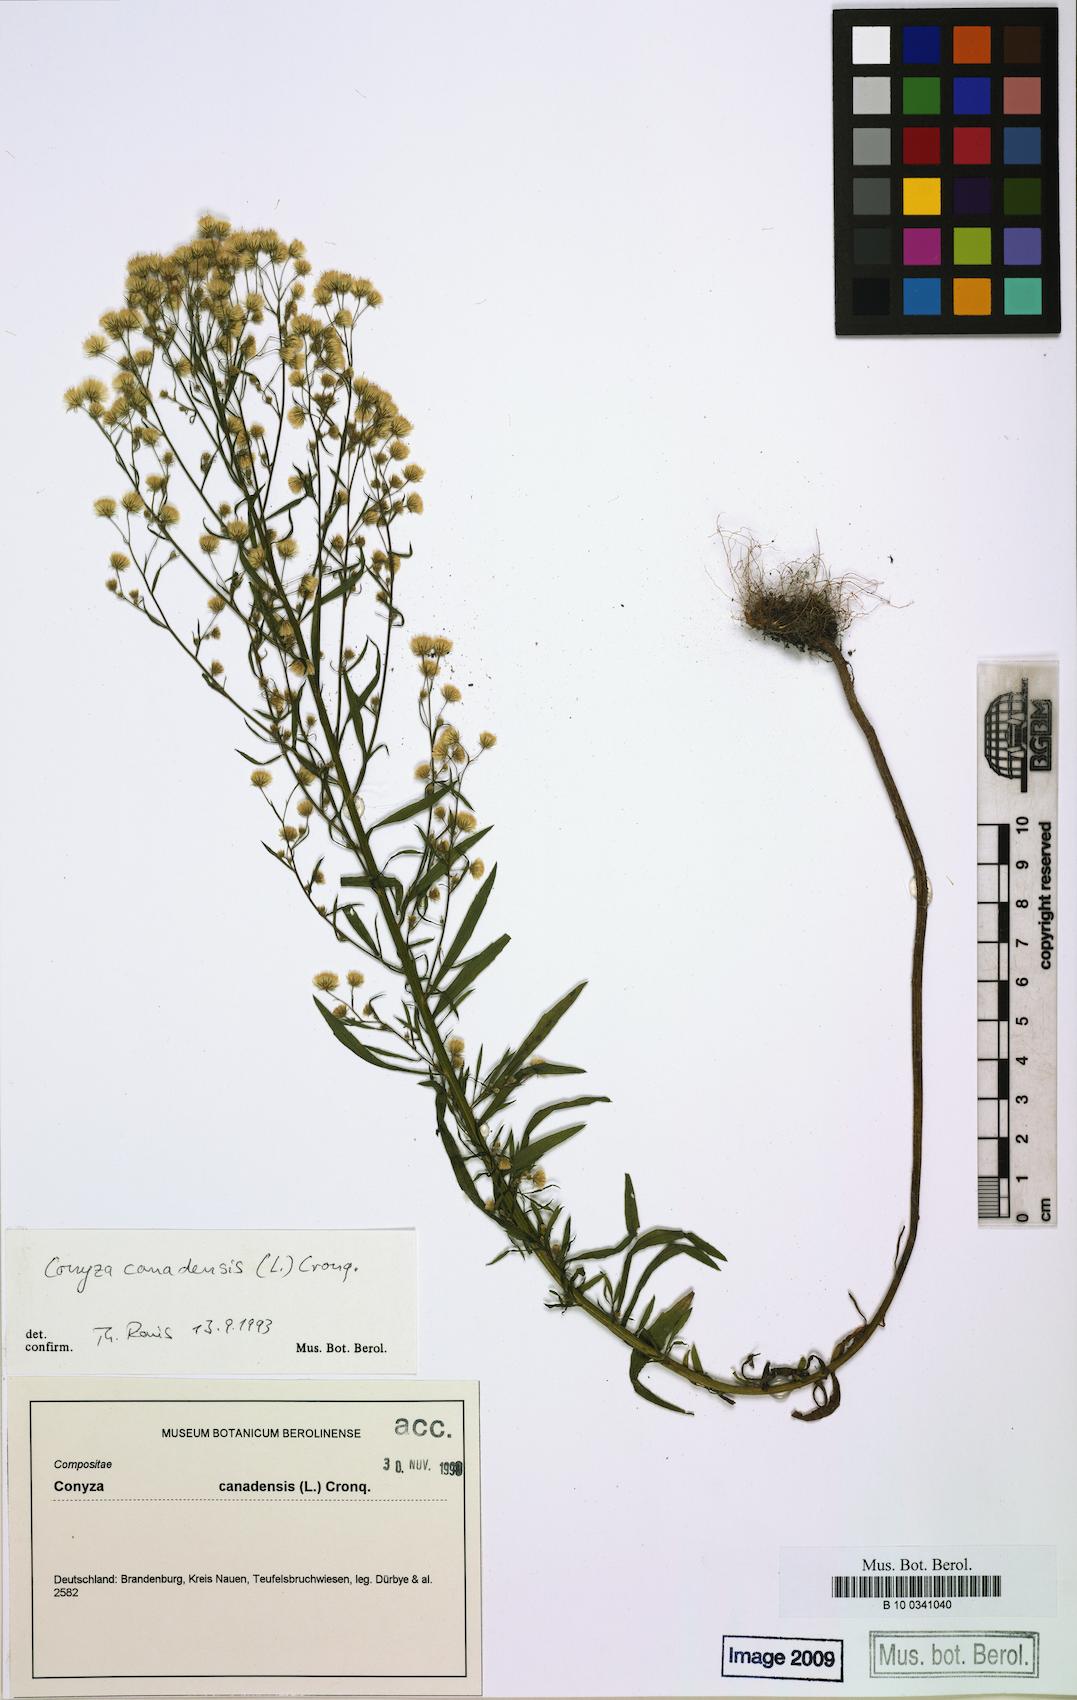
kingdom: Plantae
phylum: Tracheophyta
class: Magnoliopsida
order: Asterales
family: Asteraceae
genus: Erigeron
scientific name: Erigeron canadensis
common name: Canadian fleabane
